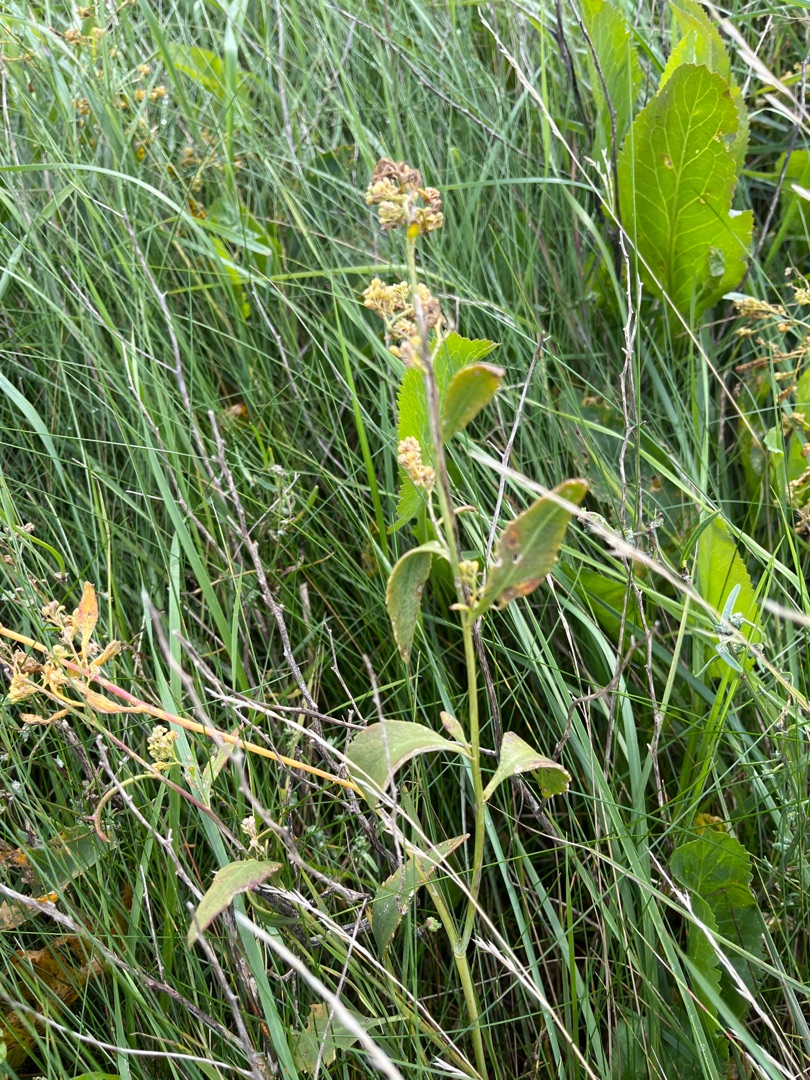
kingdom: Plantae
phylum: Tracheophyta
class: Magnoliopsida
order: Brassicales
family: Brassicaceae
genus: Lepidium
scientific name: Lepidium latifolium
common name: Strand-karse
